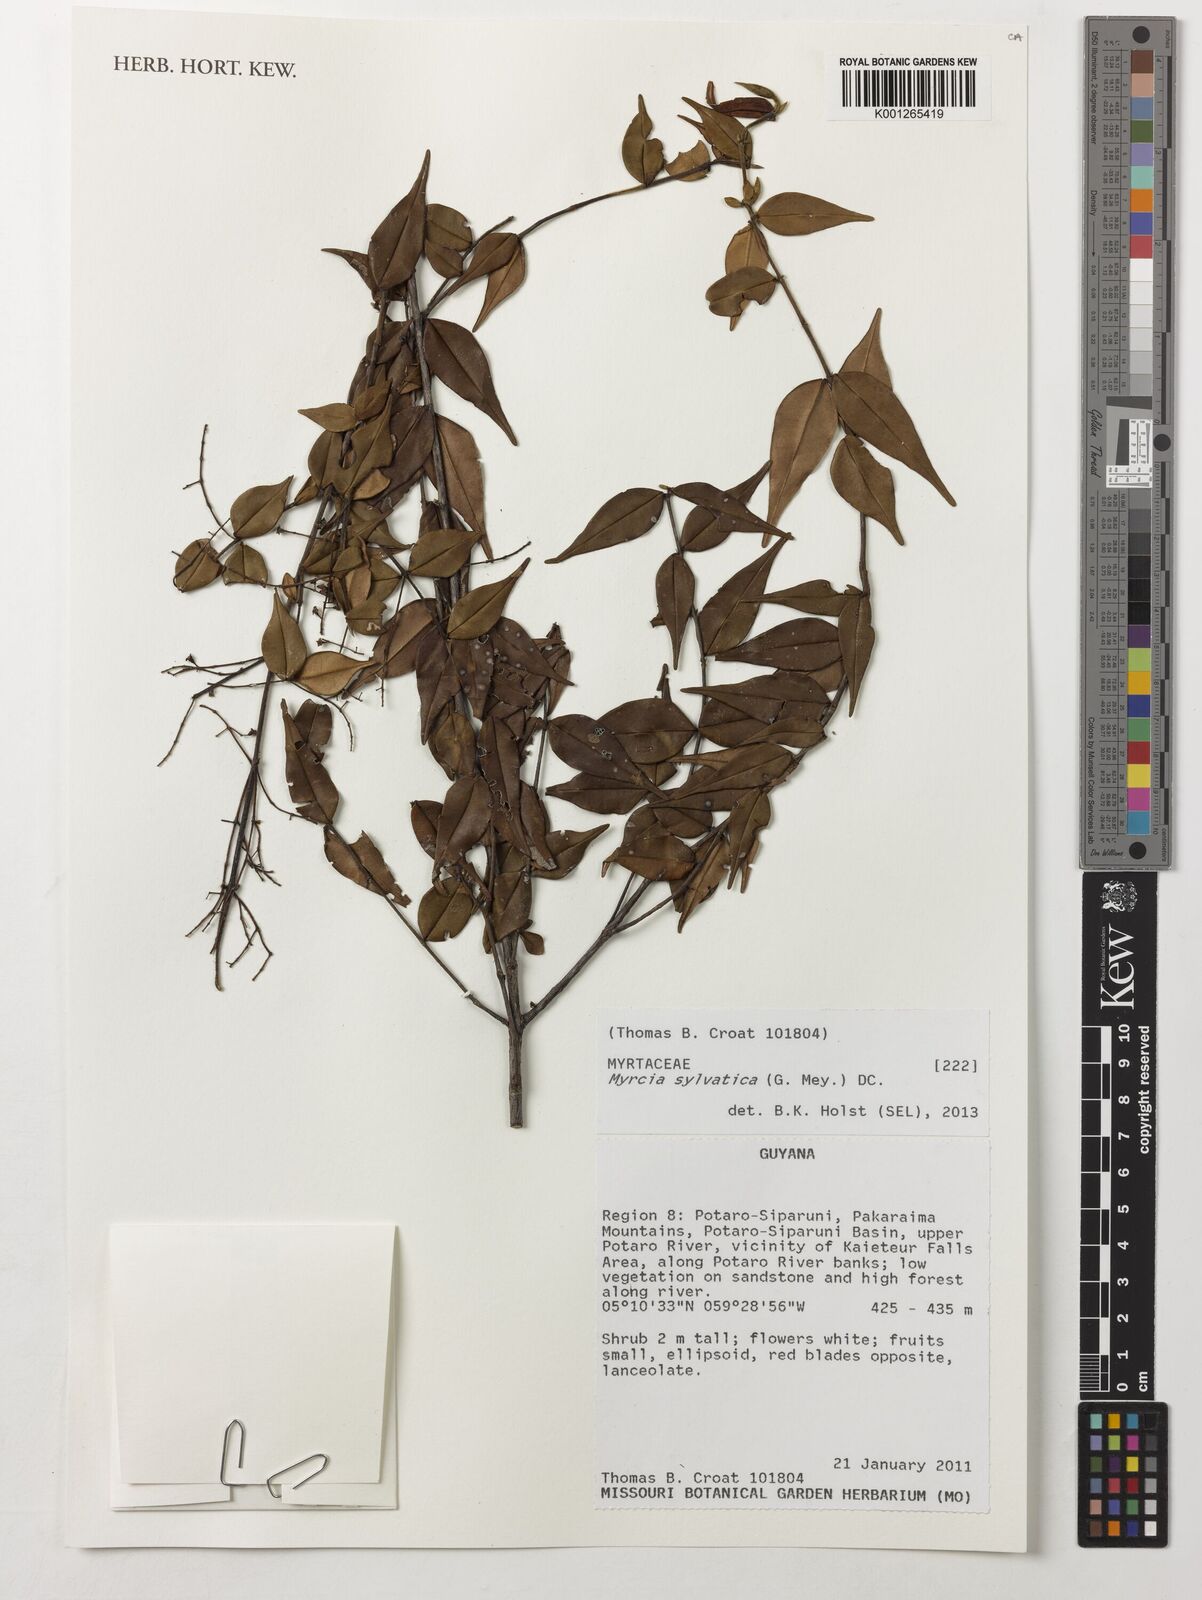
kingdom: Plantae
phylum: Tracheophyta
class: Magnoliopsida
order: Myrtales
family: Myrtaceae
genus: Myrcia
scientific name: Myrcia sylvatica
